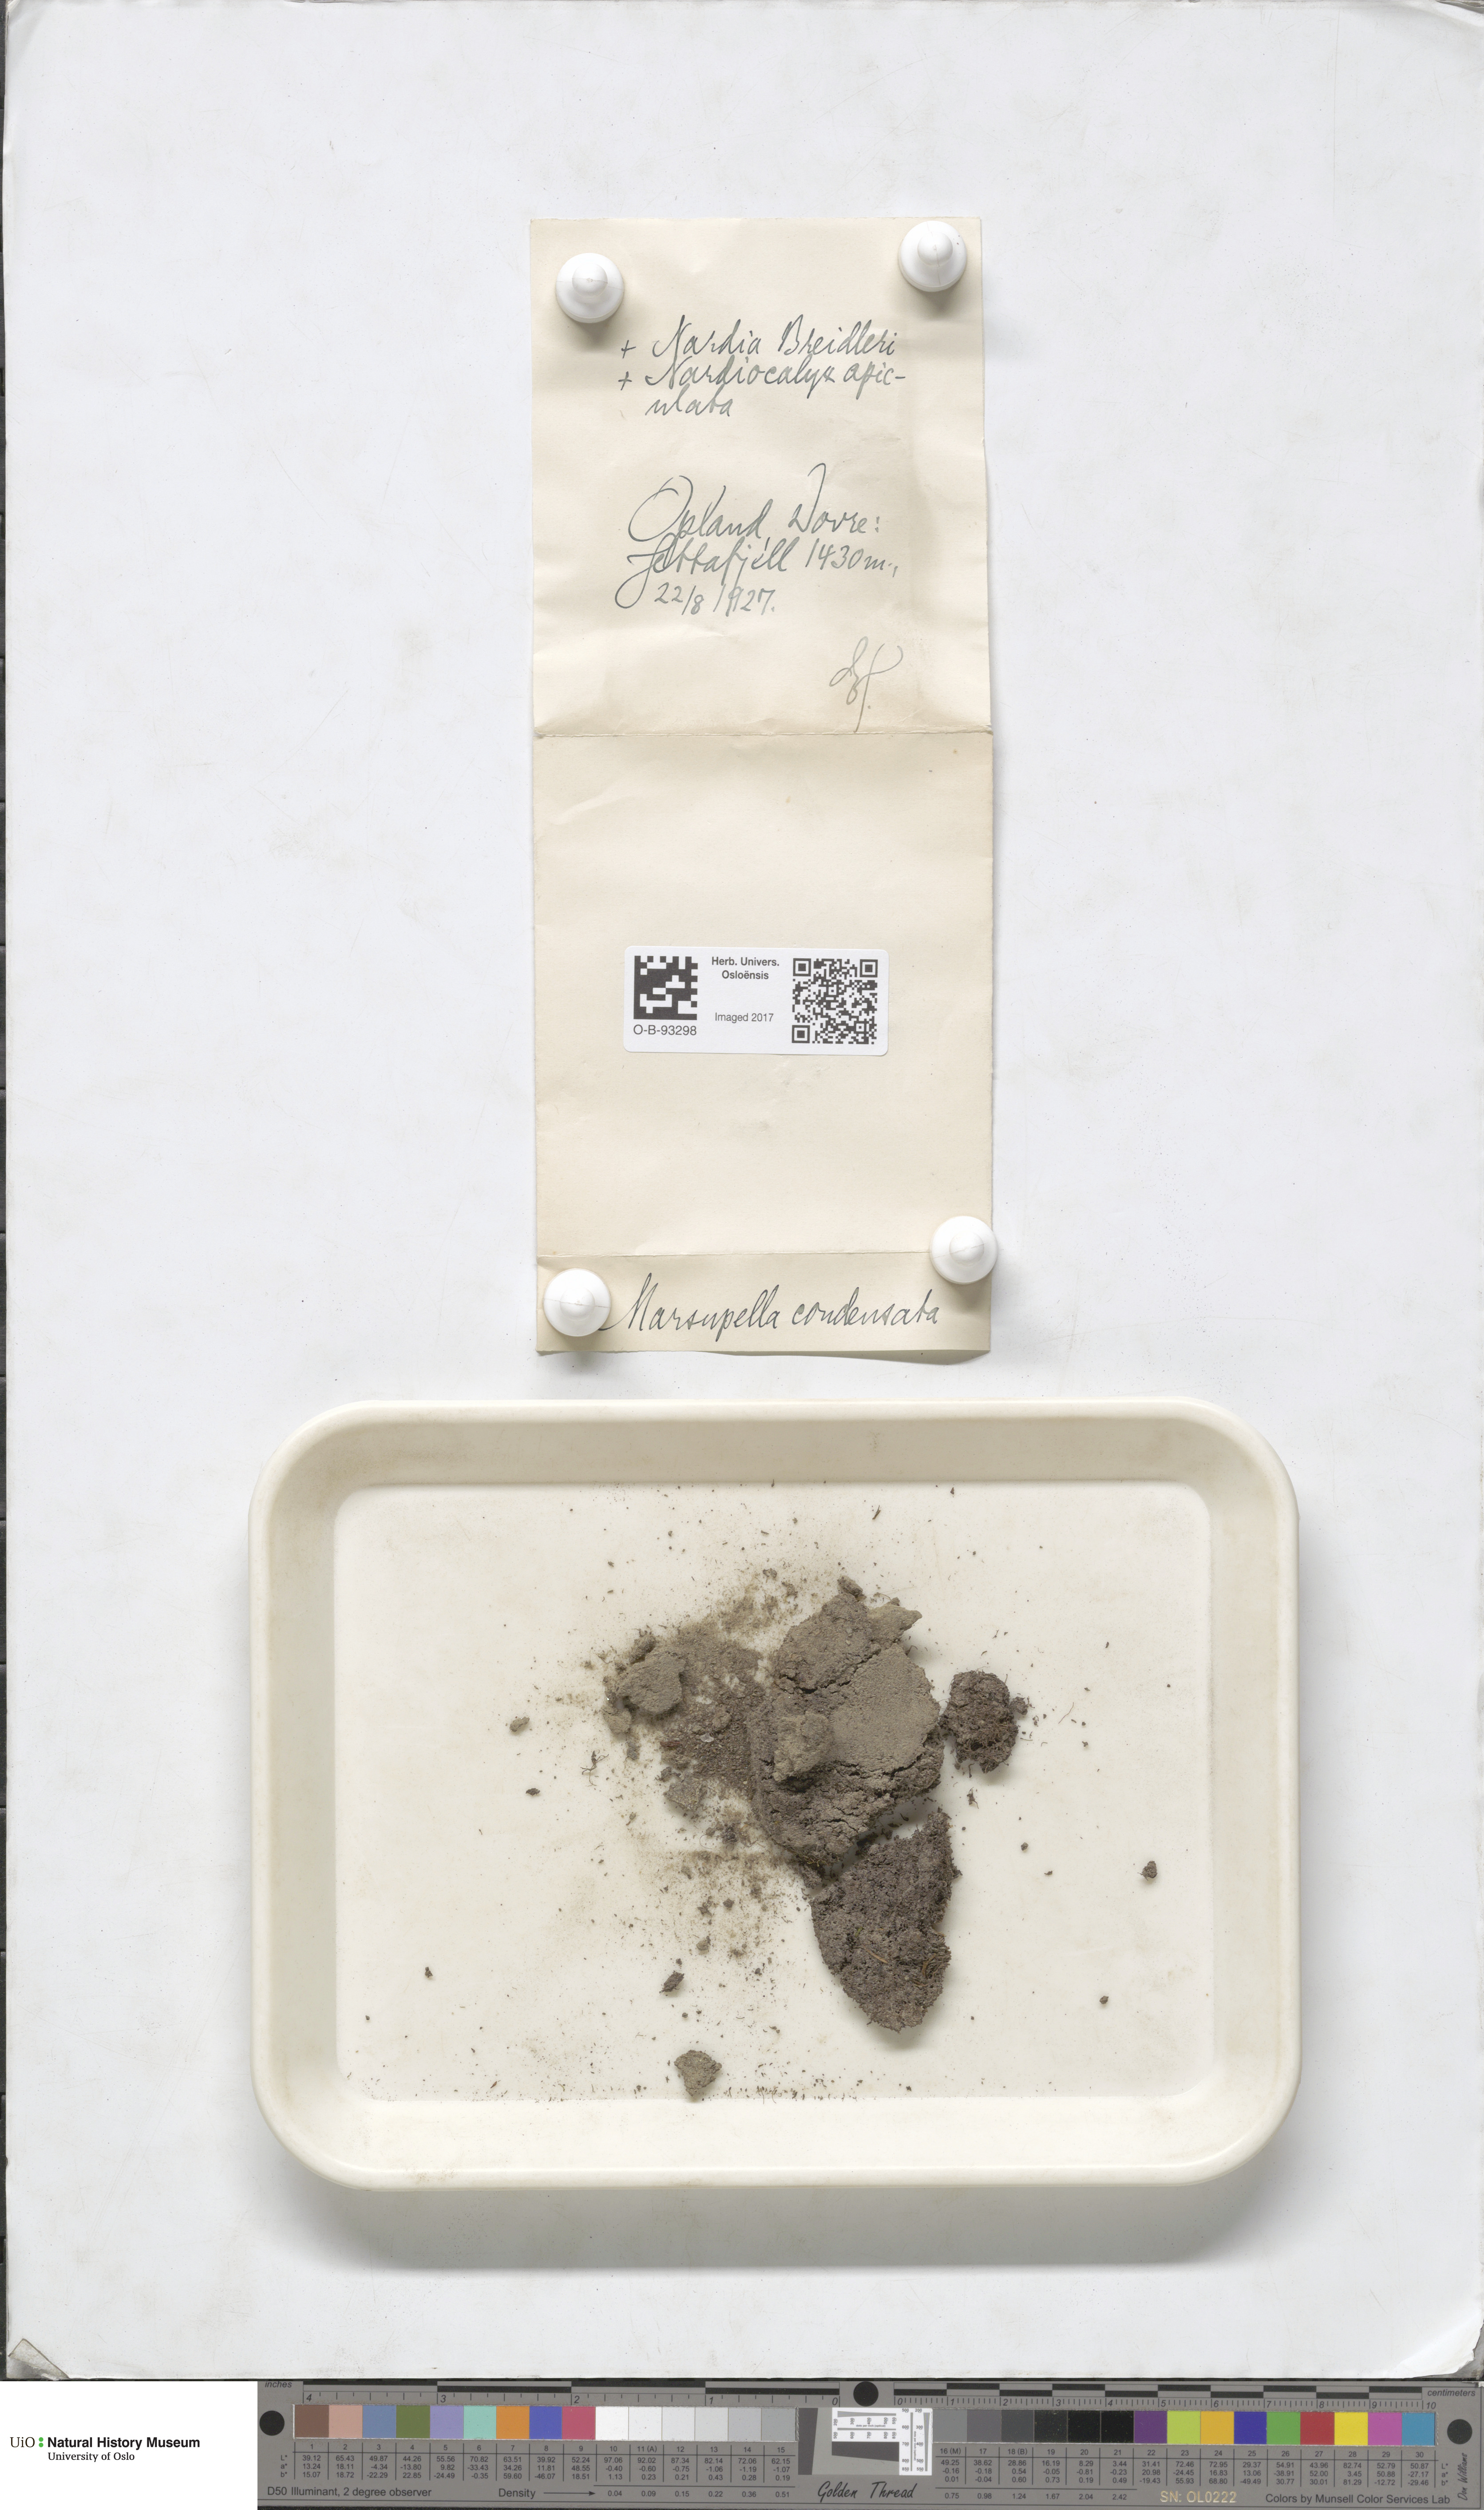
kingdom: Plantae
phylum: Marchantiophyta
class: Jungermanniopsida
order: Jungermanniales
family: Gymnomitriaceae
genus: Gymnomitrion
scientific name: Gymnomitrion brevissimum
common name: Snow rustwort
